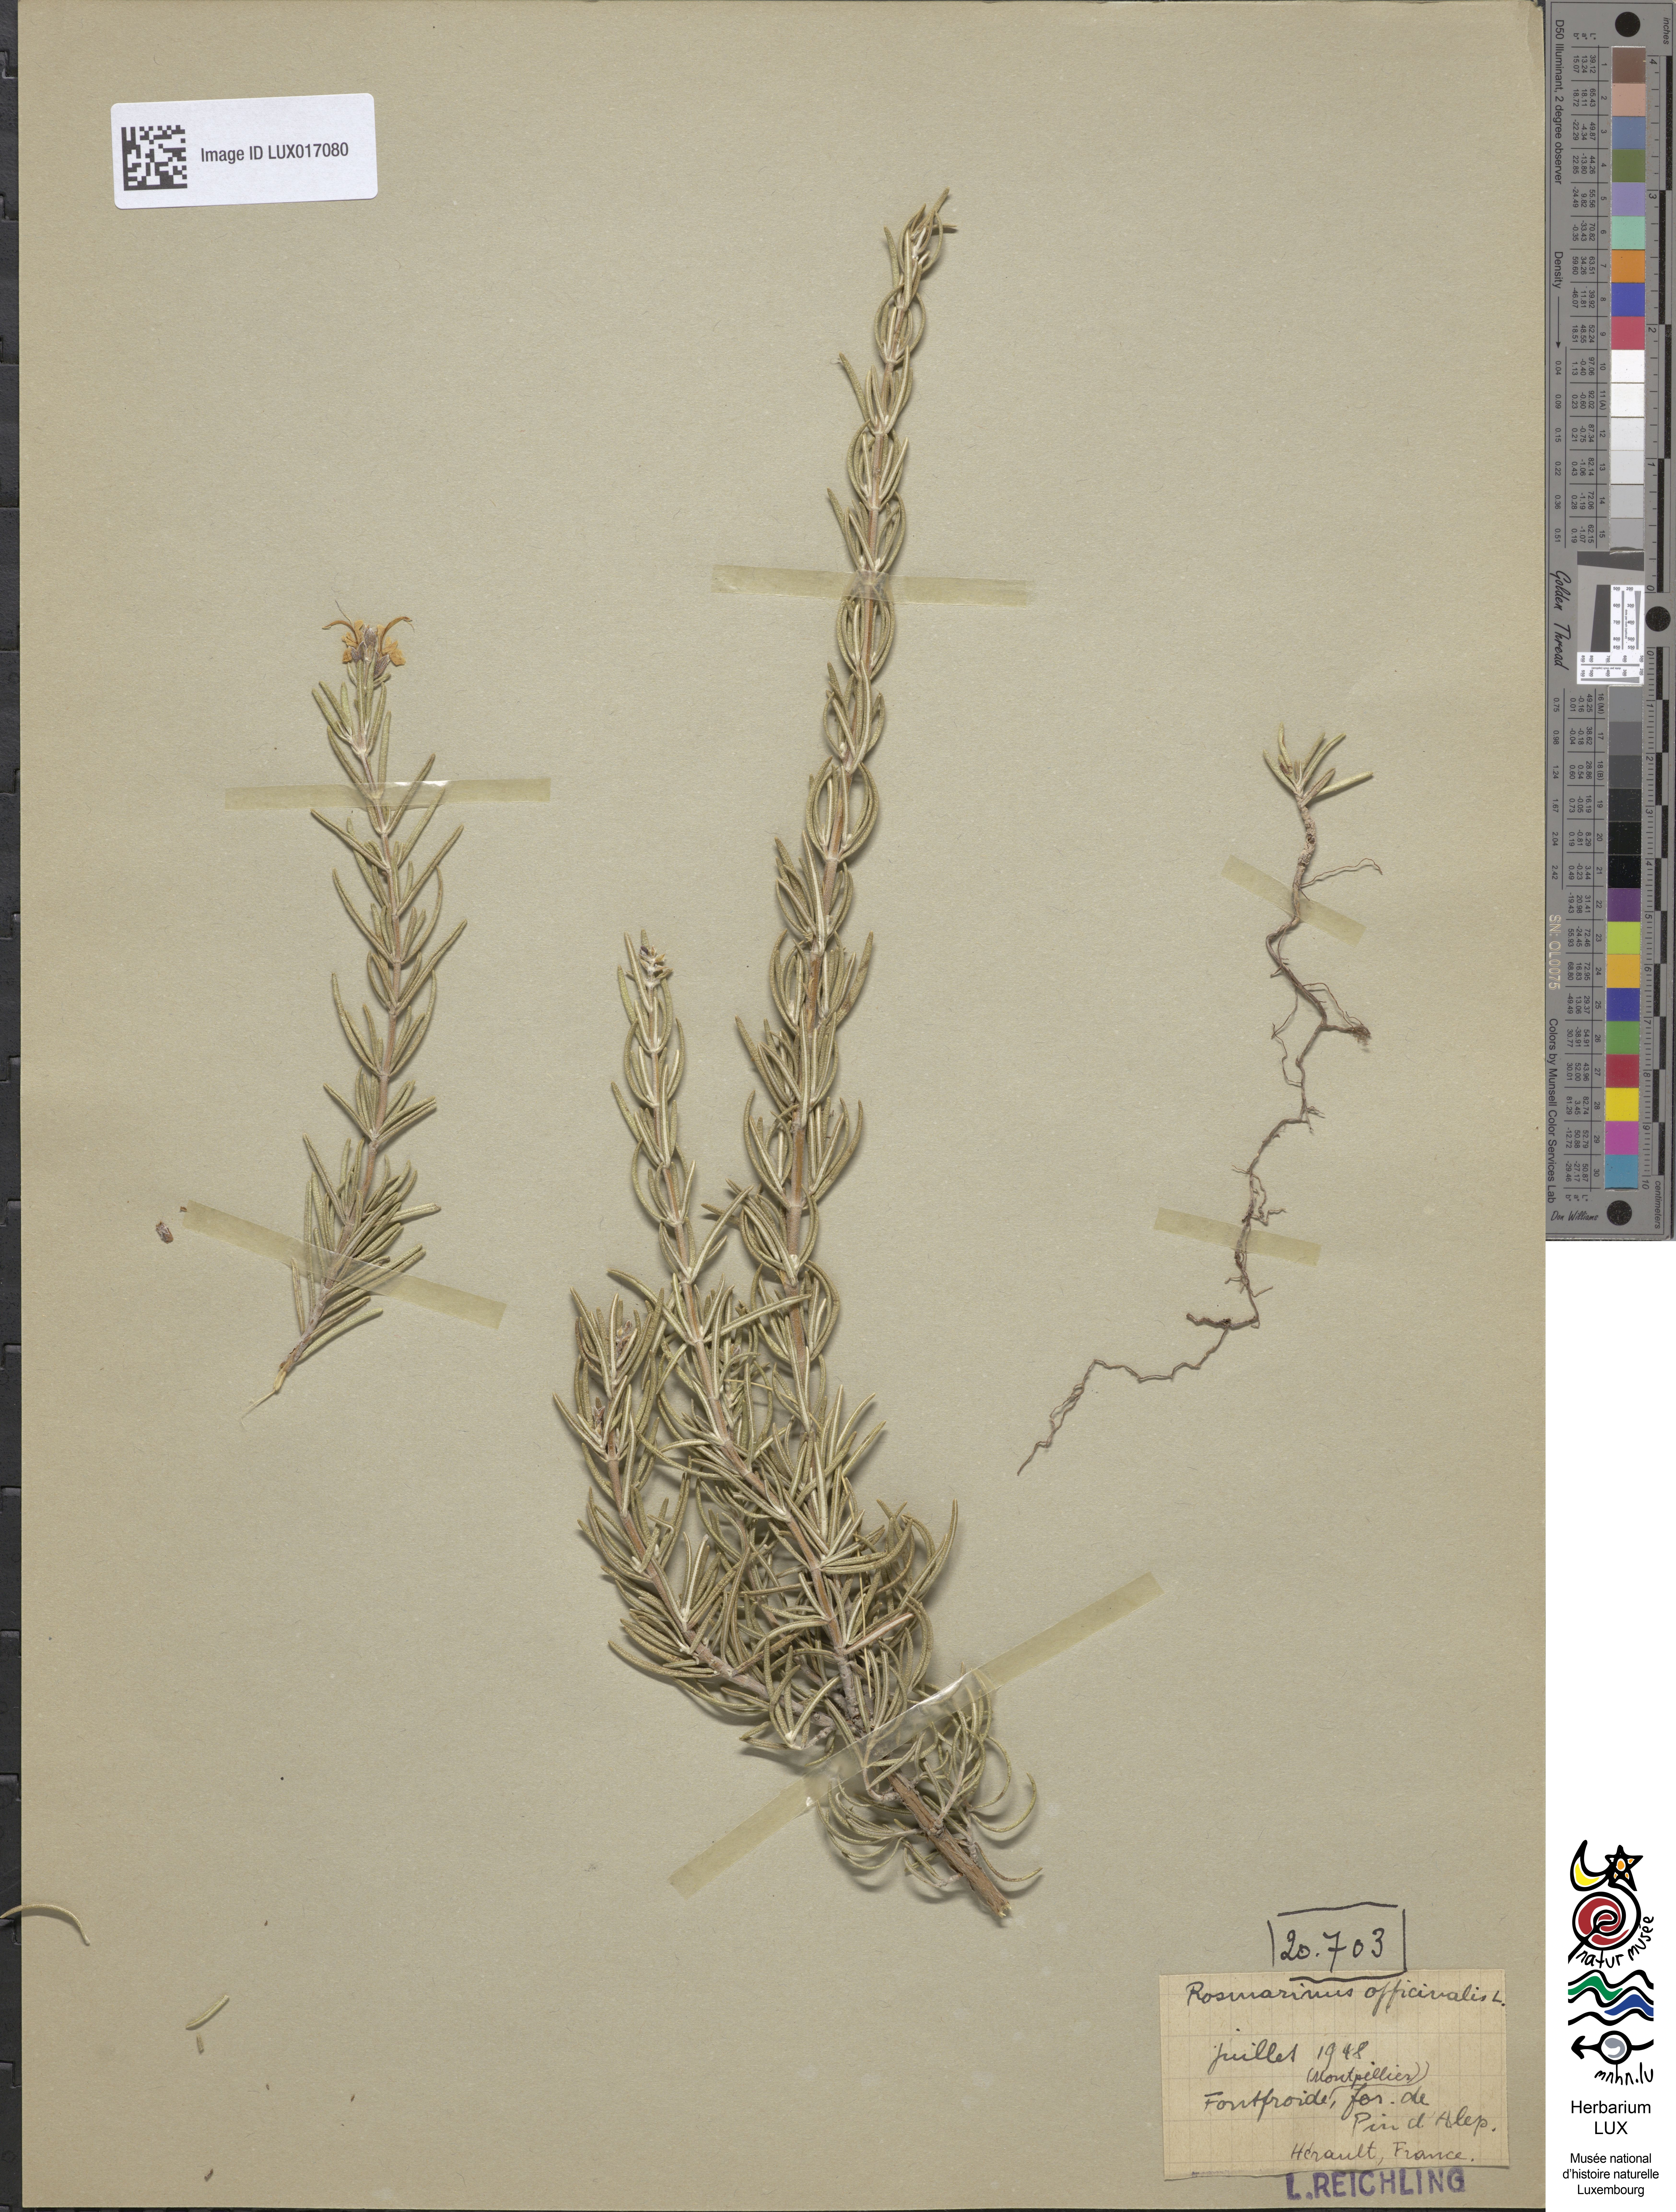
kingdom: Plantae
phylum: Tracheophyta
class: Magnoliopsida
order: Lamiales
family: Lamiaceae
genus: Salvia
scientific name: Salvia rosmarinus
